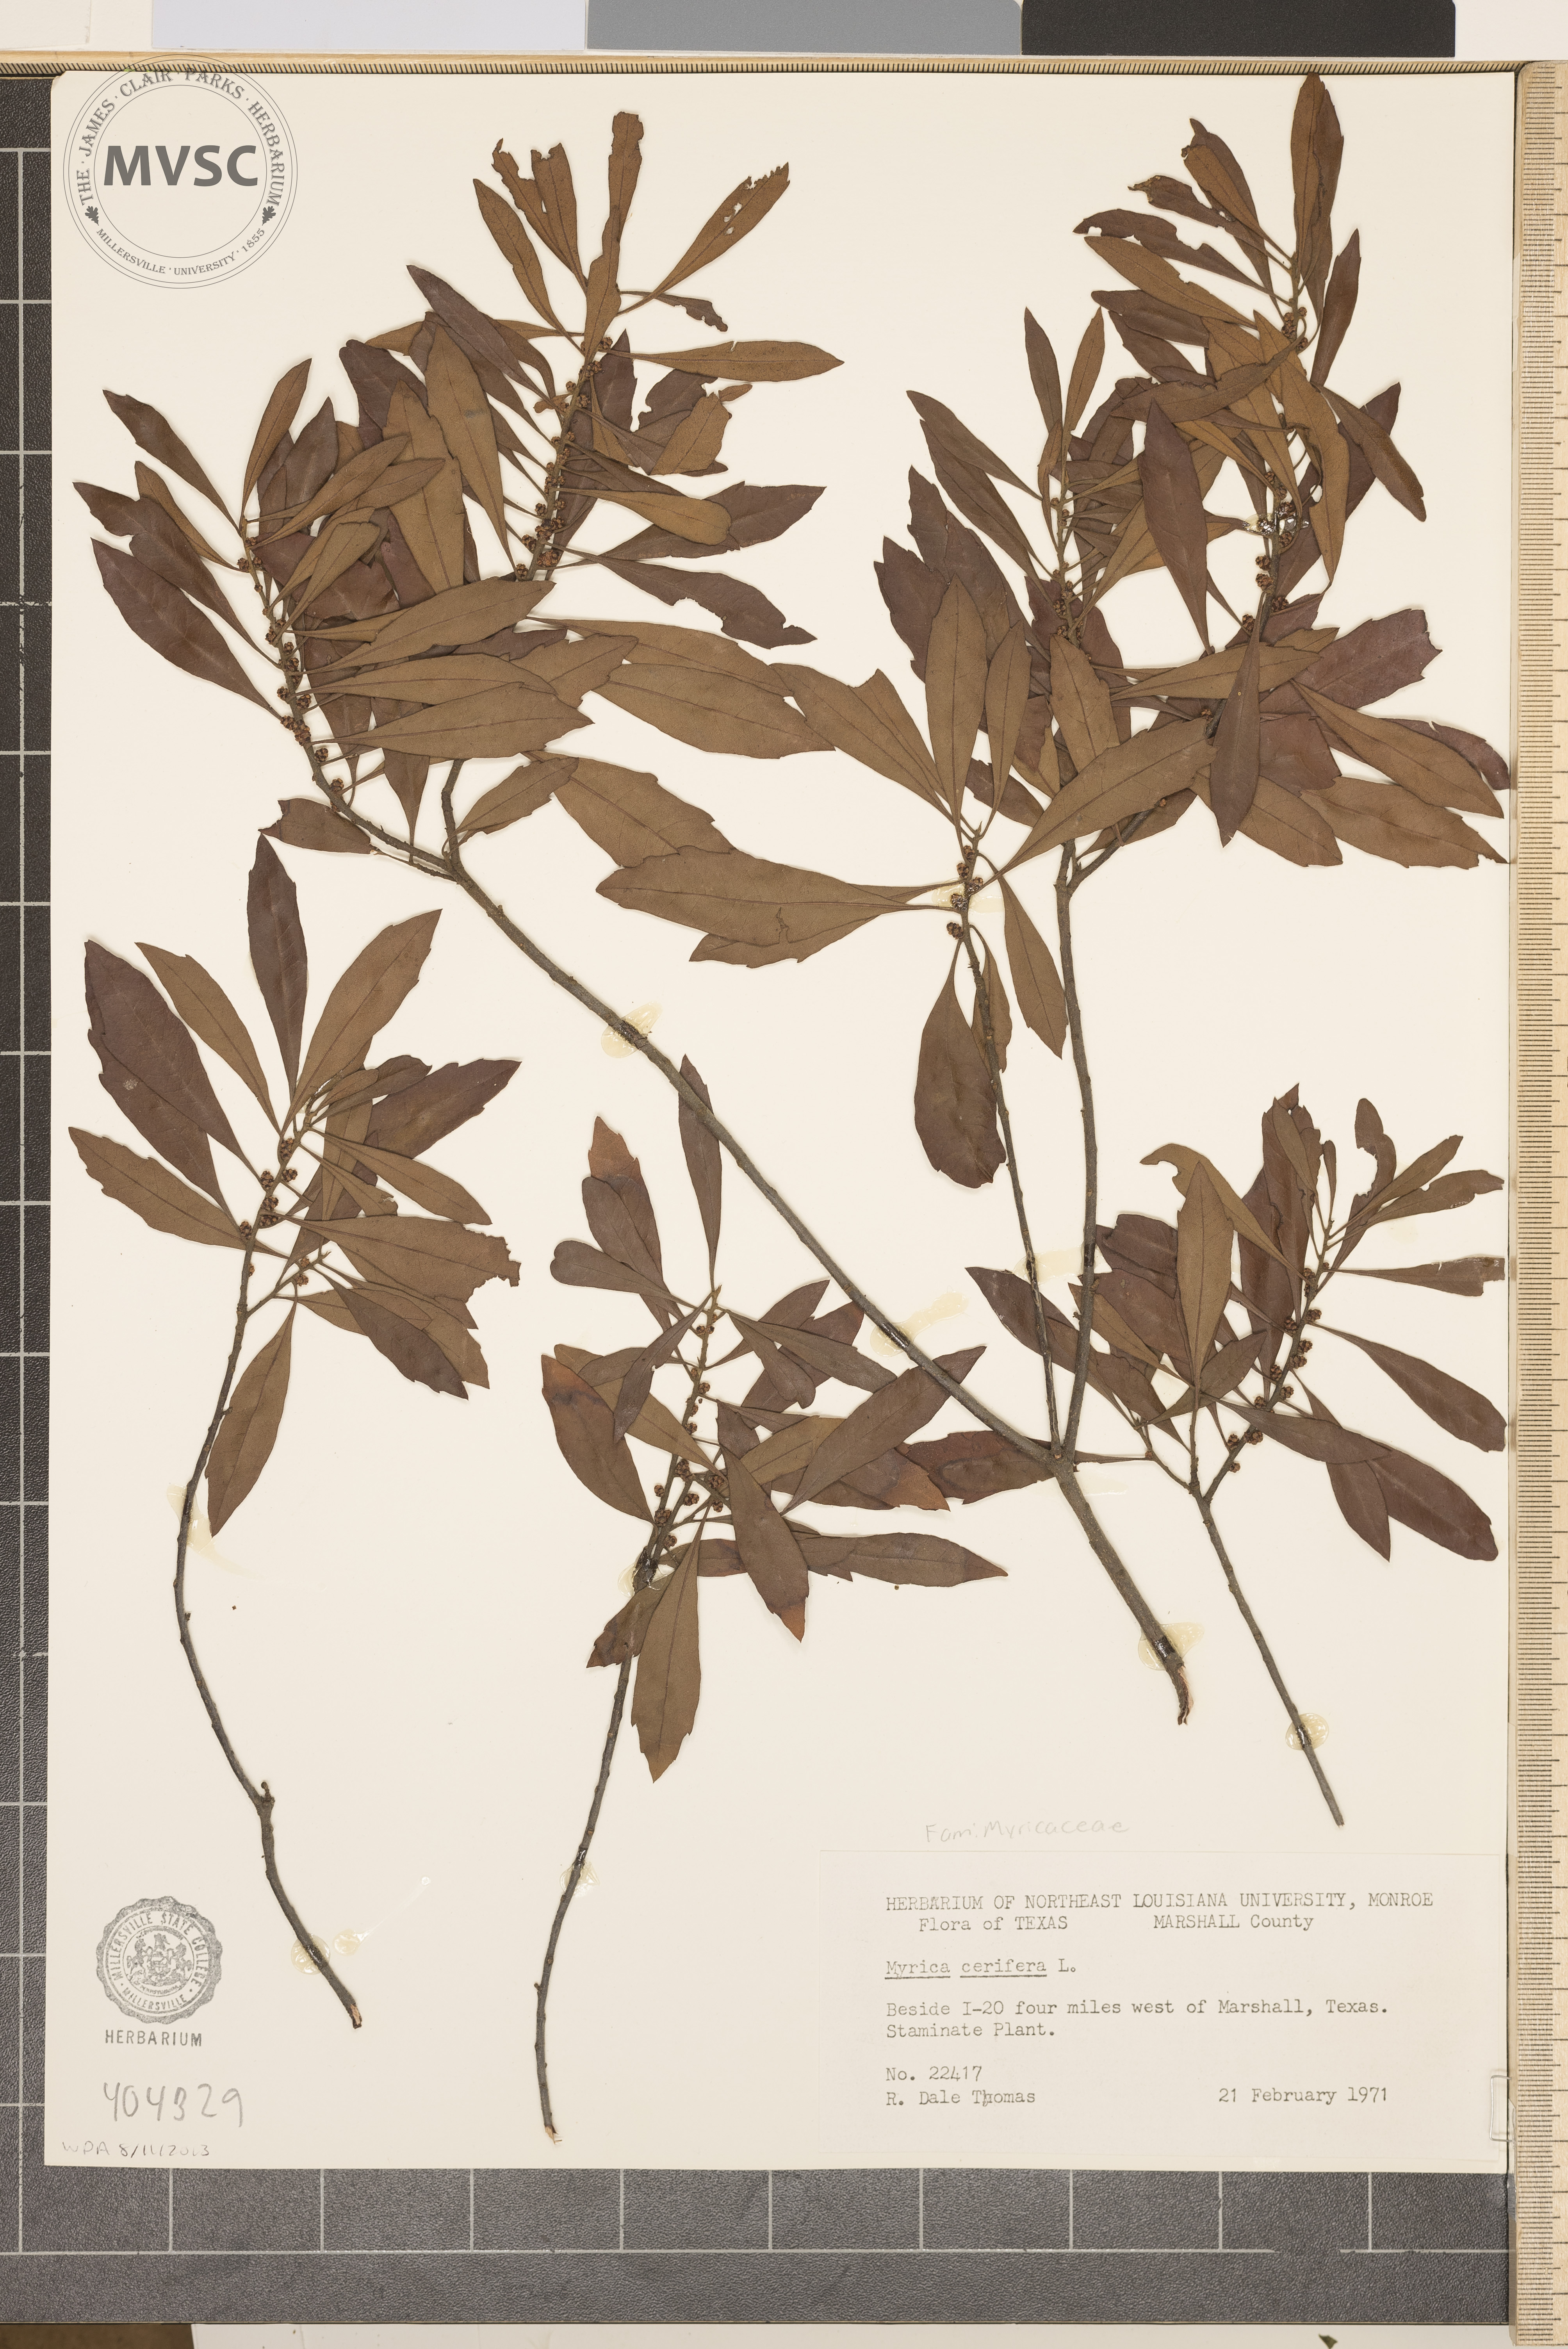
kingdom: Plantae
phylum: Tracheophyta
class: Magnoliopsida
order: Fagales
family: Myricaceae
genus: Myrica
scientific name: Myrica cerifera
